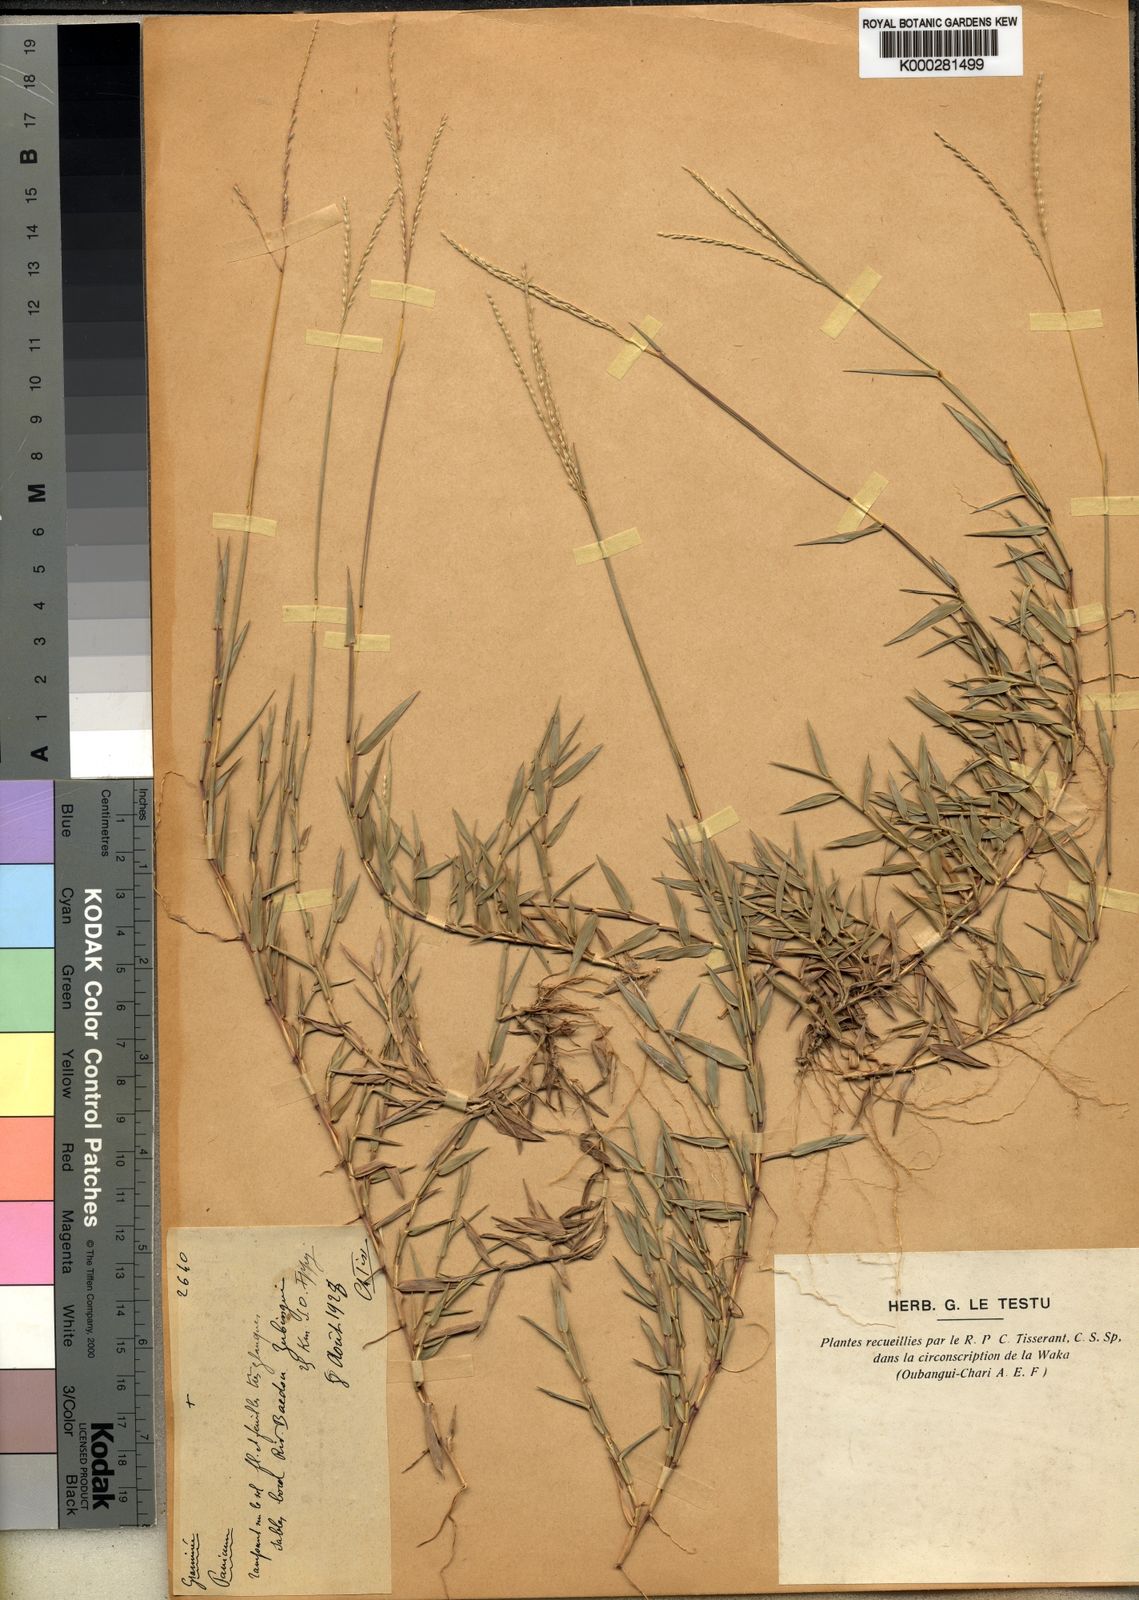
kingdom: Plantae
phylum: Tracheophyta
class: Liliopsida
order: Poales
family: Poaceae
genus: Digitaria
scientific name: Digitaria
